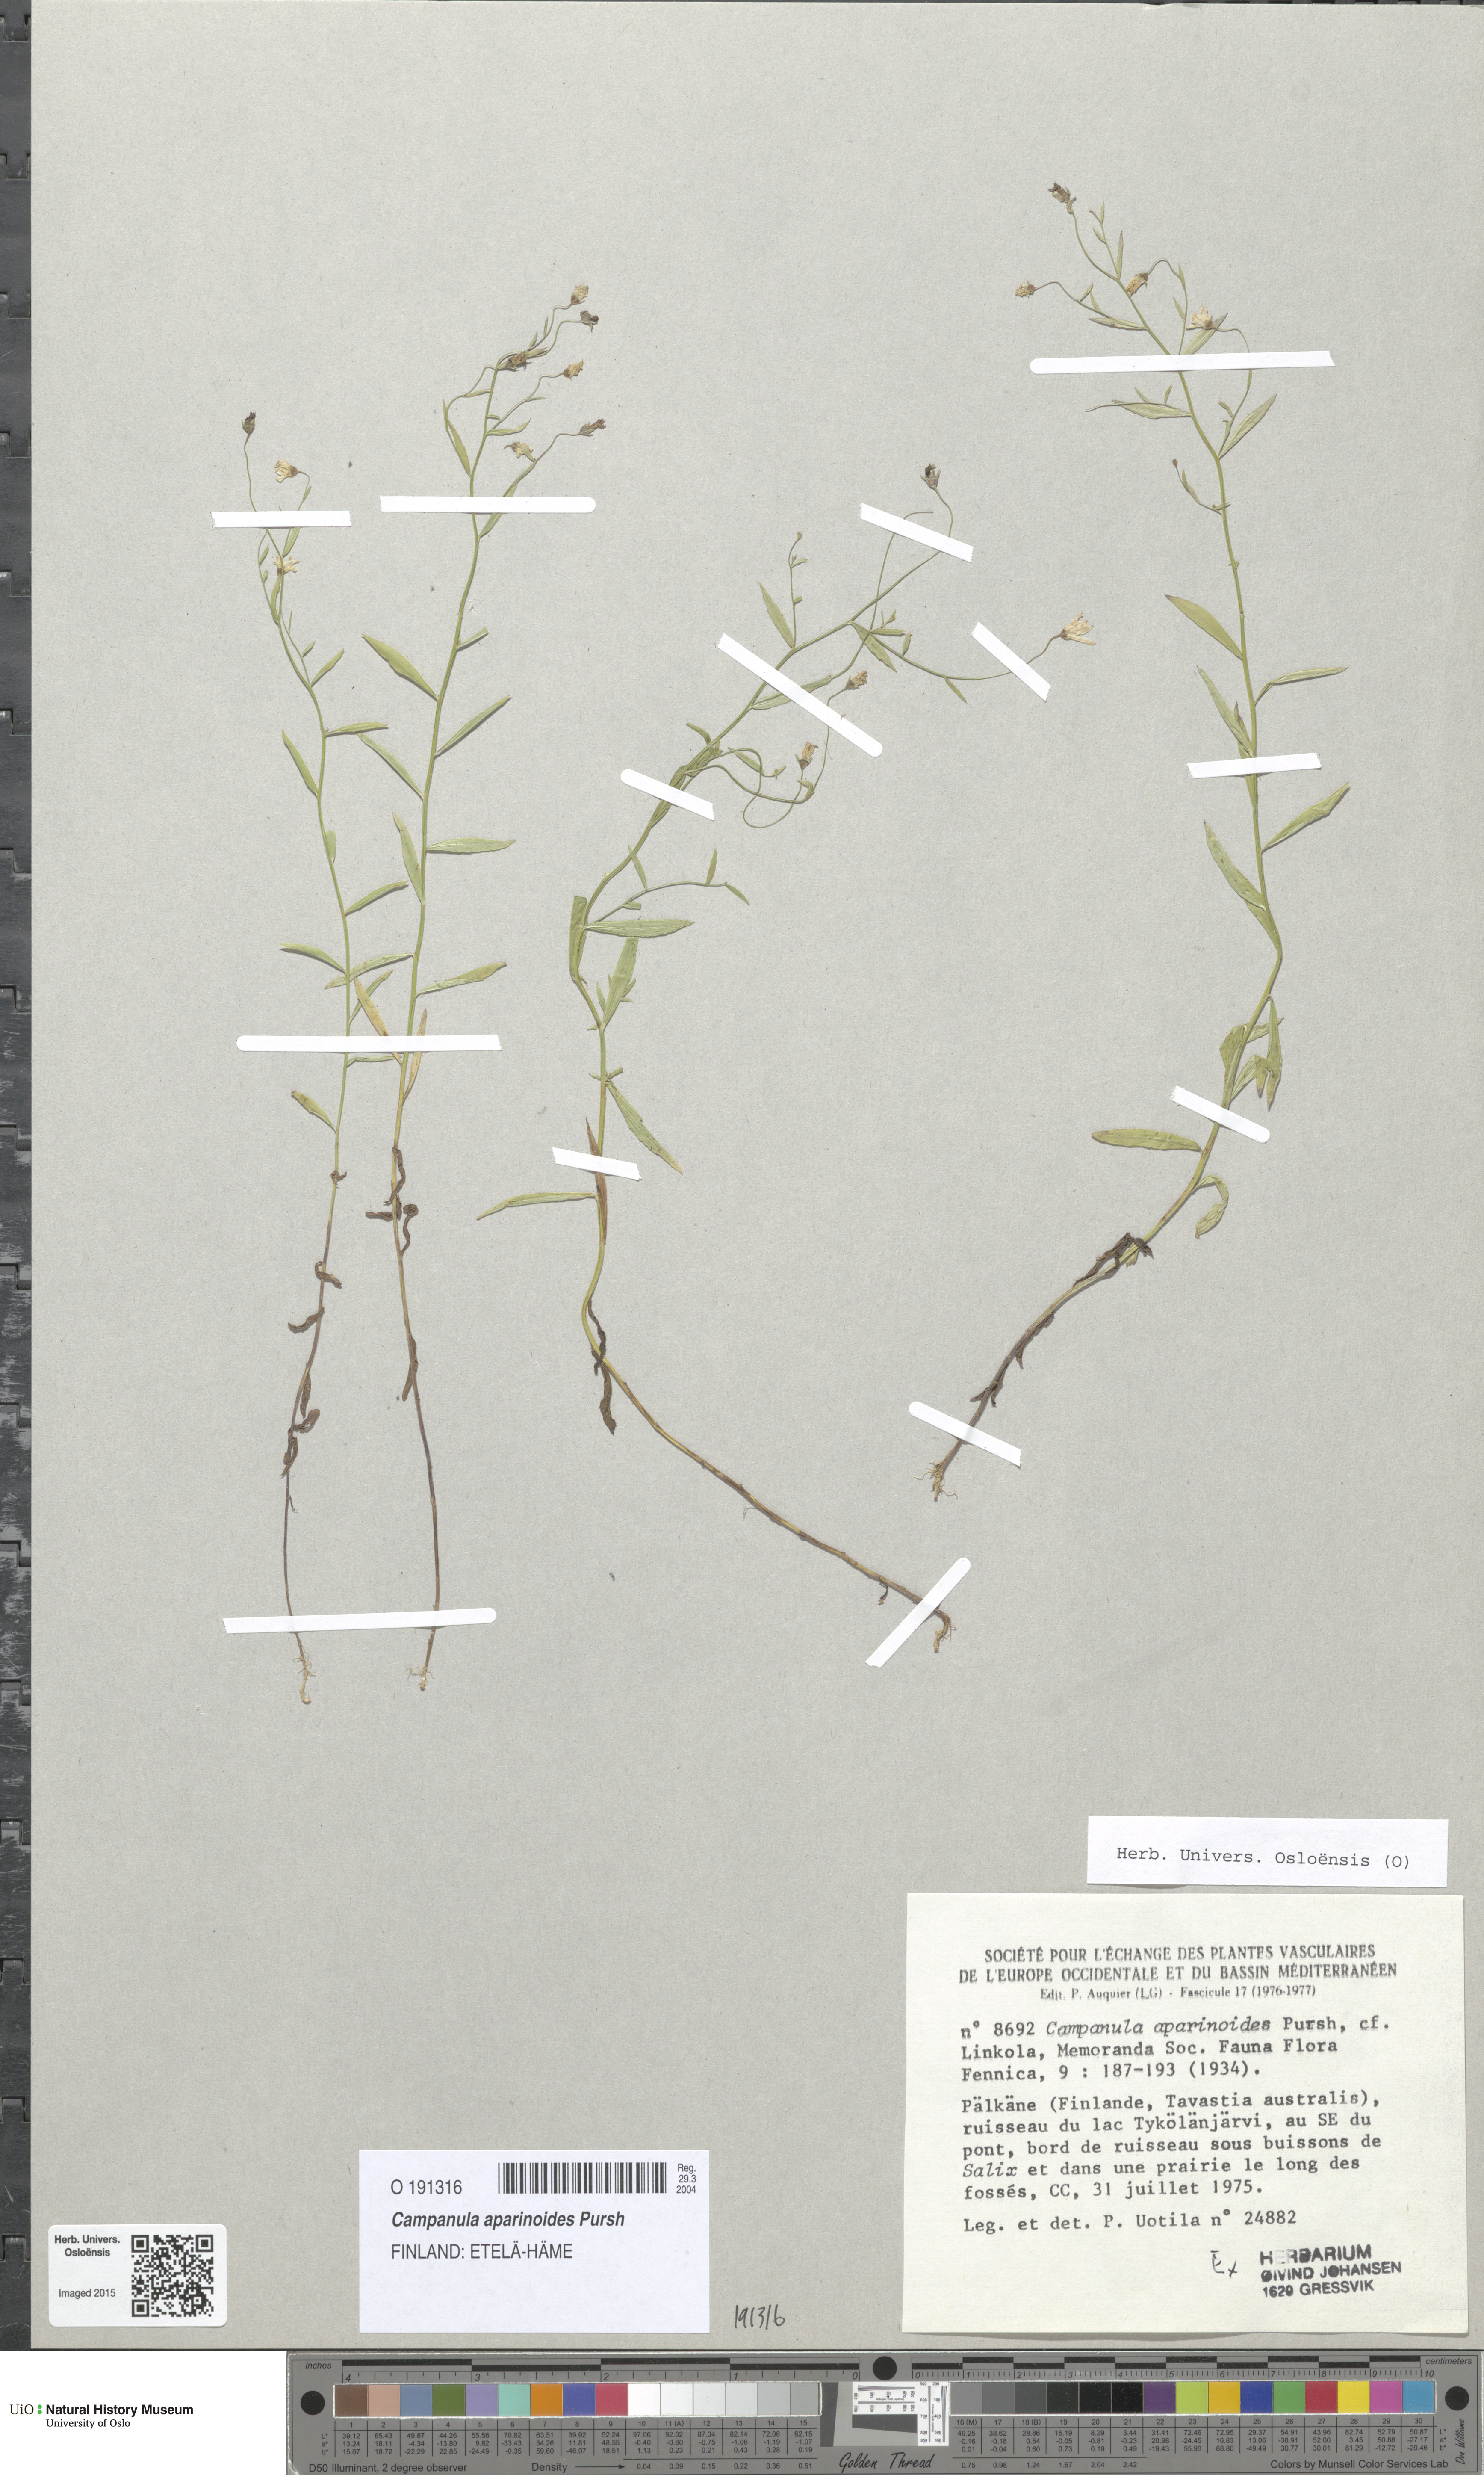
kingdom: Plantae
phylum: Tracheophyta
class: Magnoliopsida
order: Asterales
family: Campanulaceae
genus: Palustricodon
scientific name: Palustricodon aparinoides
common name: Bedstraw bellflower
